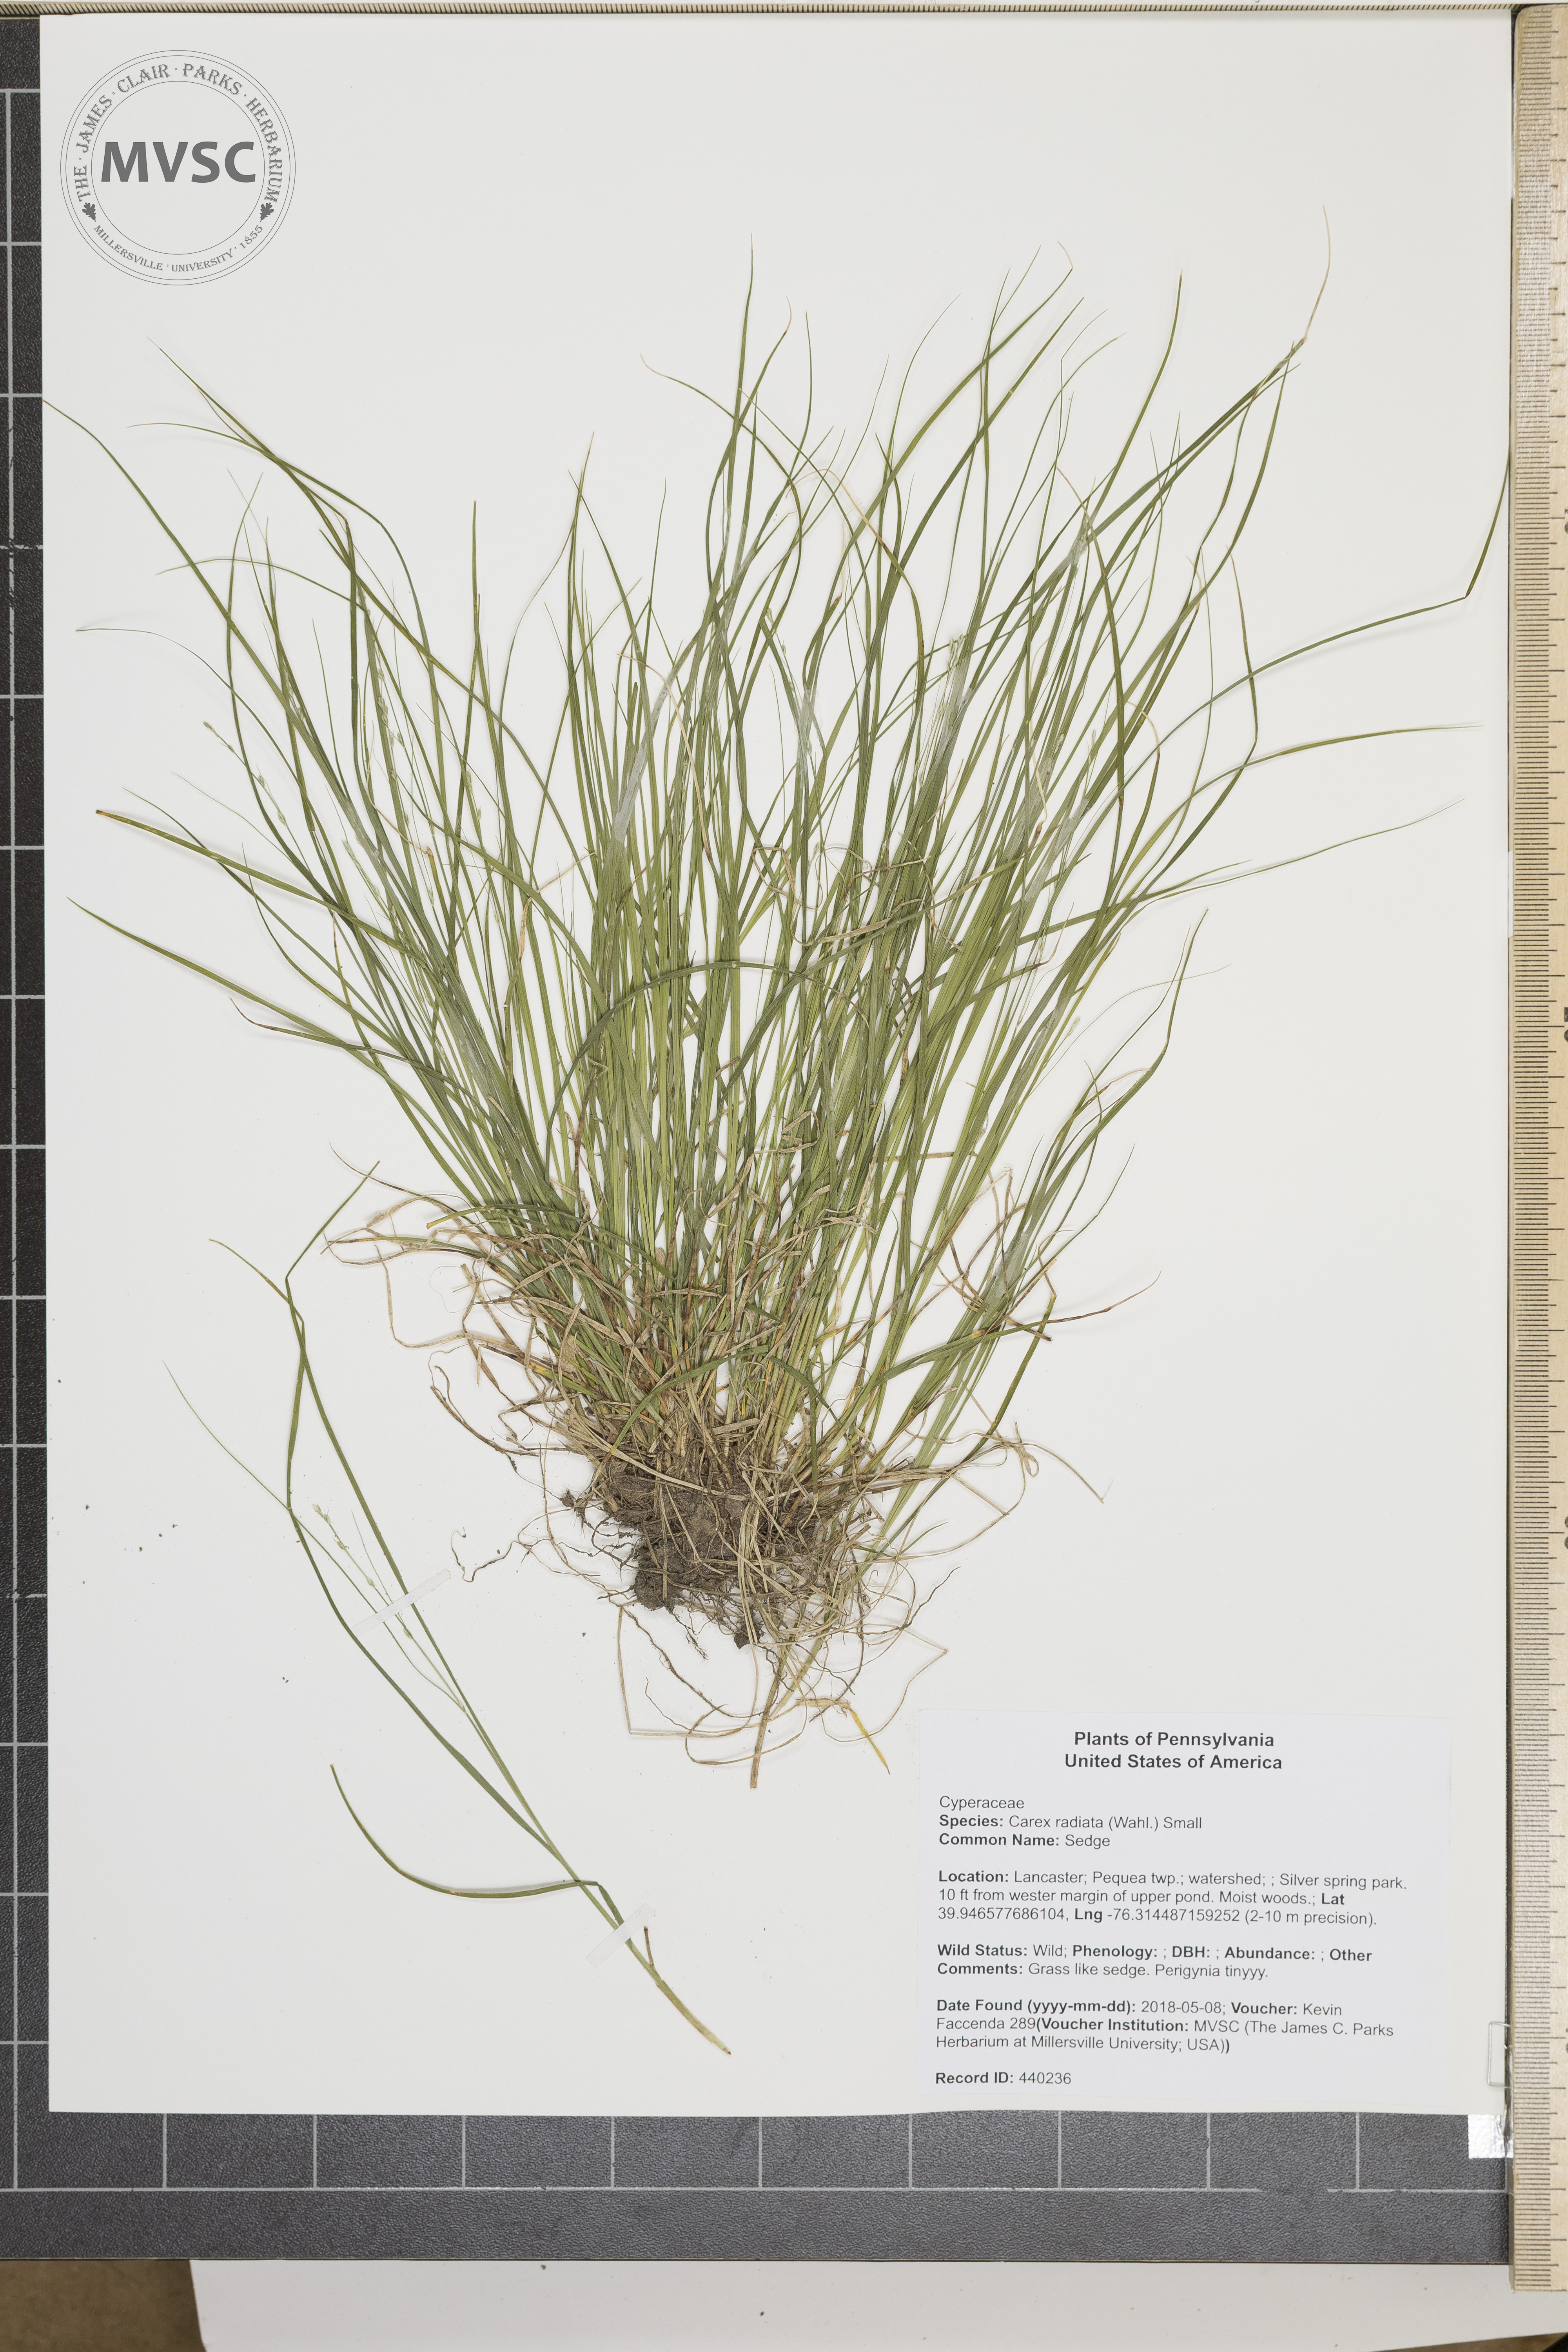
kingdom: Plantae
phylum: Tracheophyta
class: Liliopsida
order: Poales
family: Cyperaceae
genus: Carex
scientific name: Carex radiata
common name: Sedge
